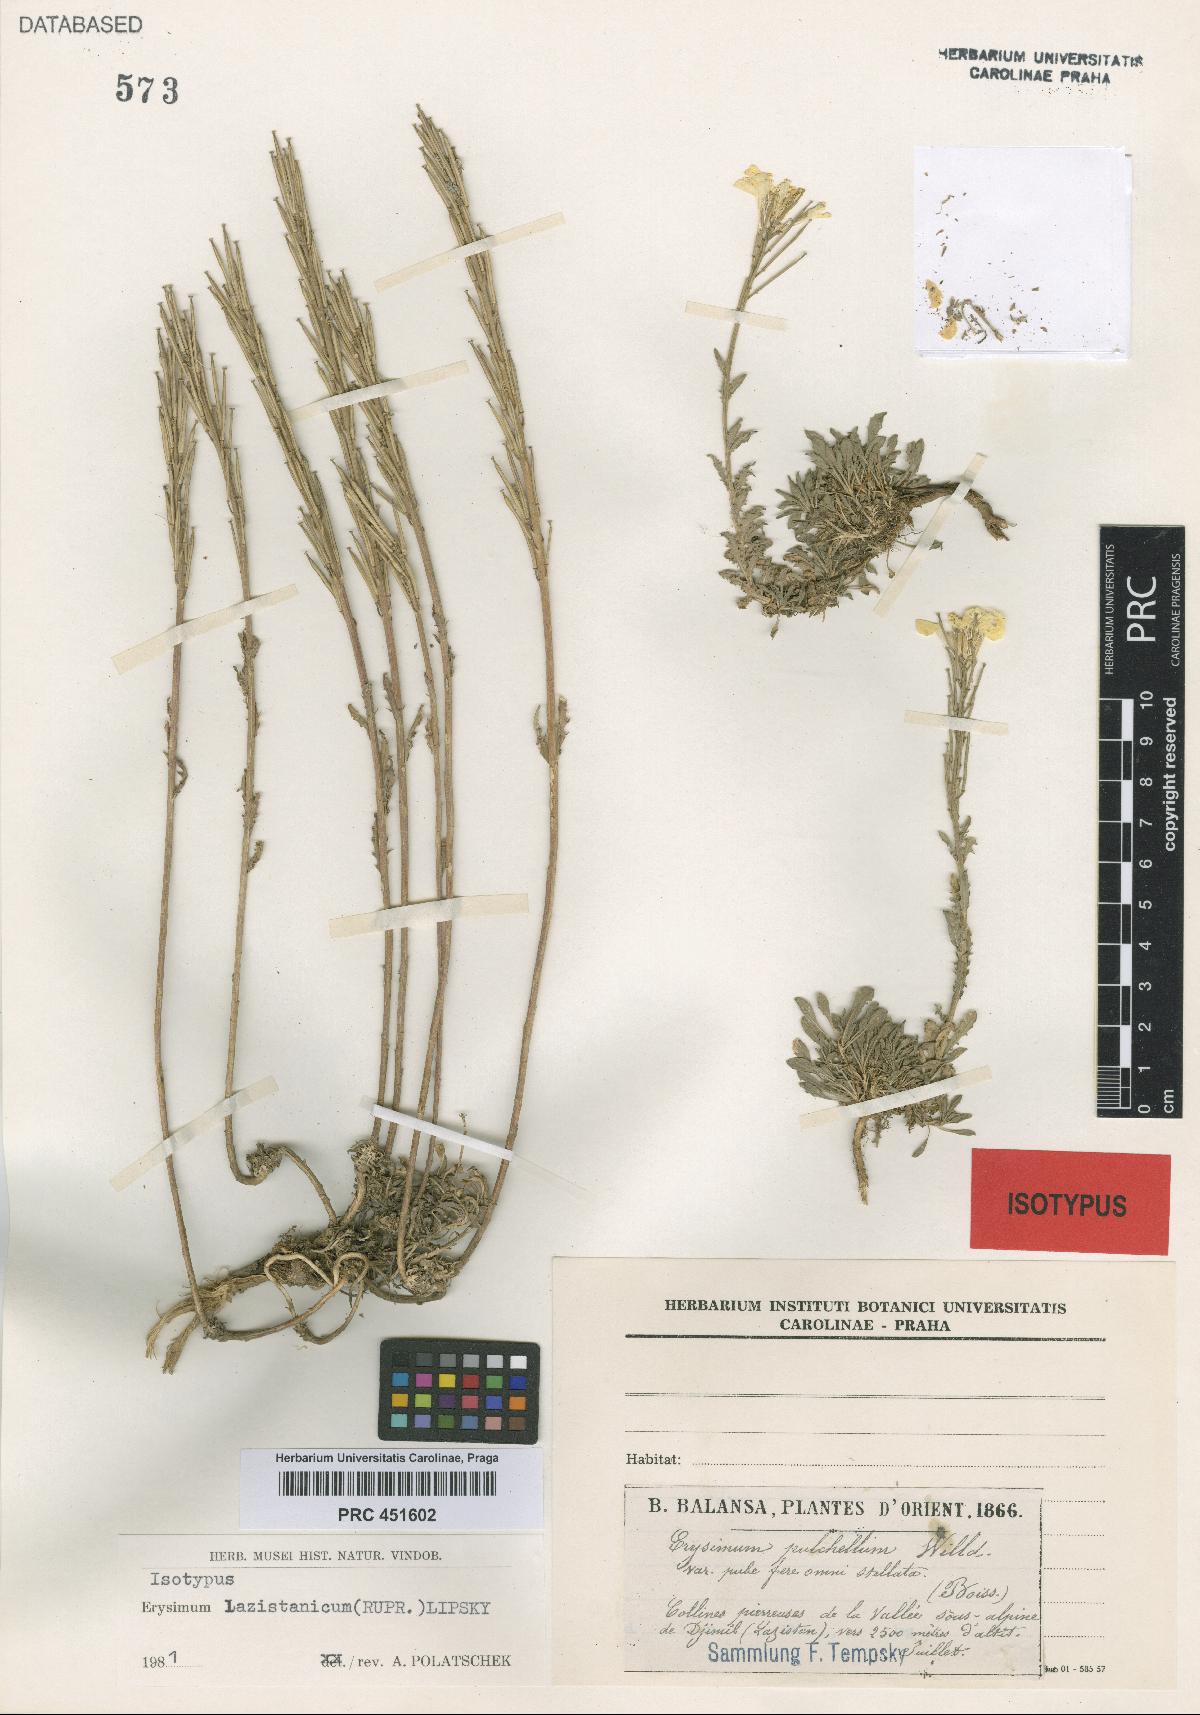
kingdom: Plantae
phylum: Tracheophyta
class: Magnoliopsida
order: Brassicales
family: Brassicaceae
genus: Erysimum
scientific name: Erysimum pulchellum
